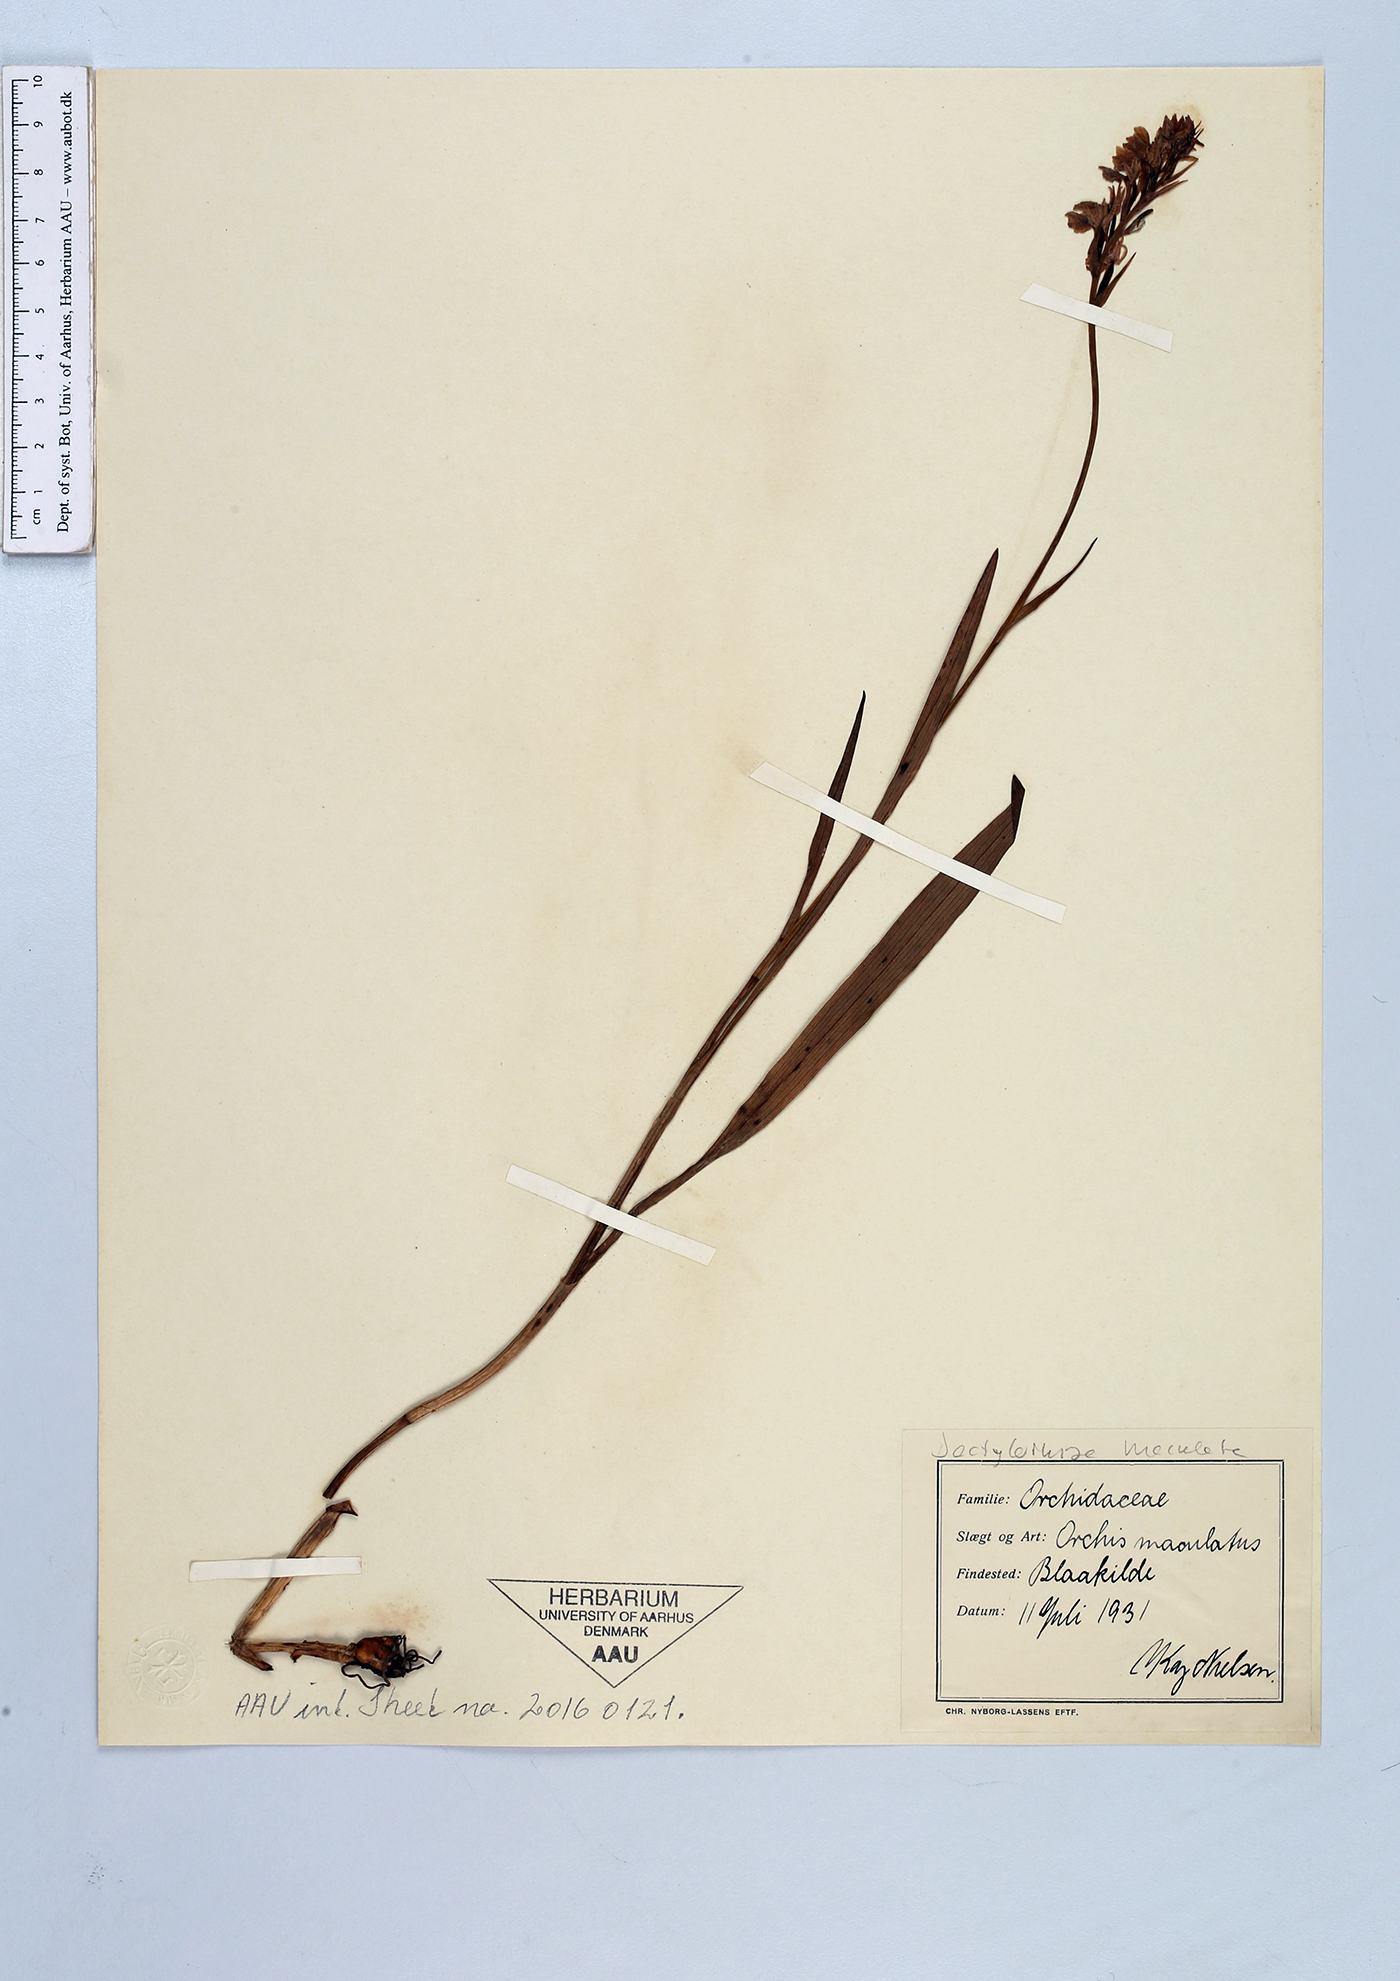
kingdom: Plantae
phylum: Tracheophyta
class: Liliopsida
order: Asparagales
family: Orchidaceae
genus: Dactylorhiza
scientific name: Dactylorhiza maculata
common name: Heath spotted-orchid
